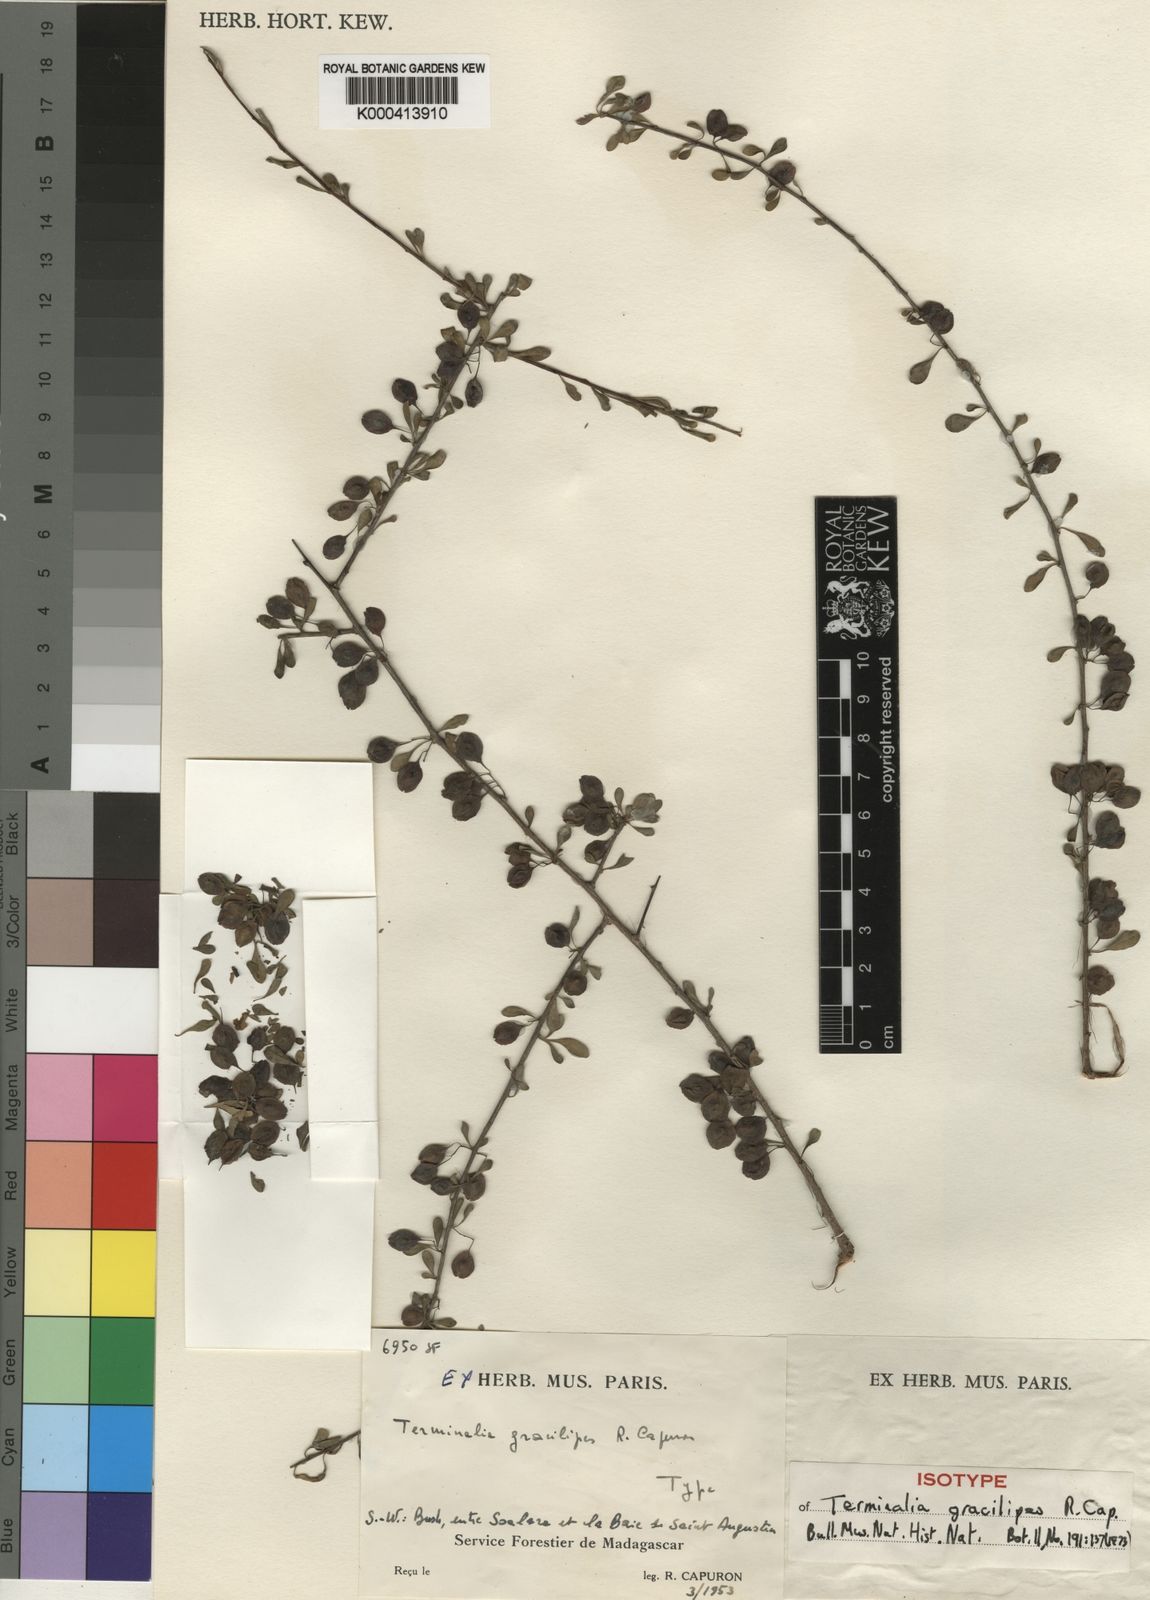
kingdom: Plantae
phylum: Tracheophyta
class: Magnoliopsida
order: Myrtales
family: Combretaceae
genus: Terminalia
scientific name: Terminalia gracilipes
